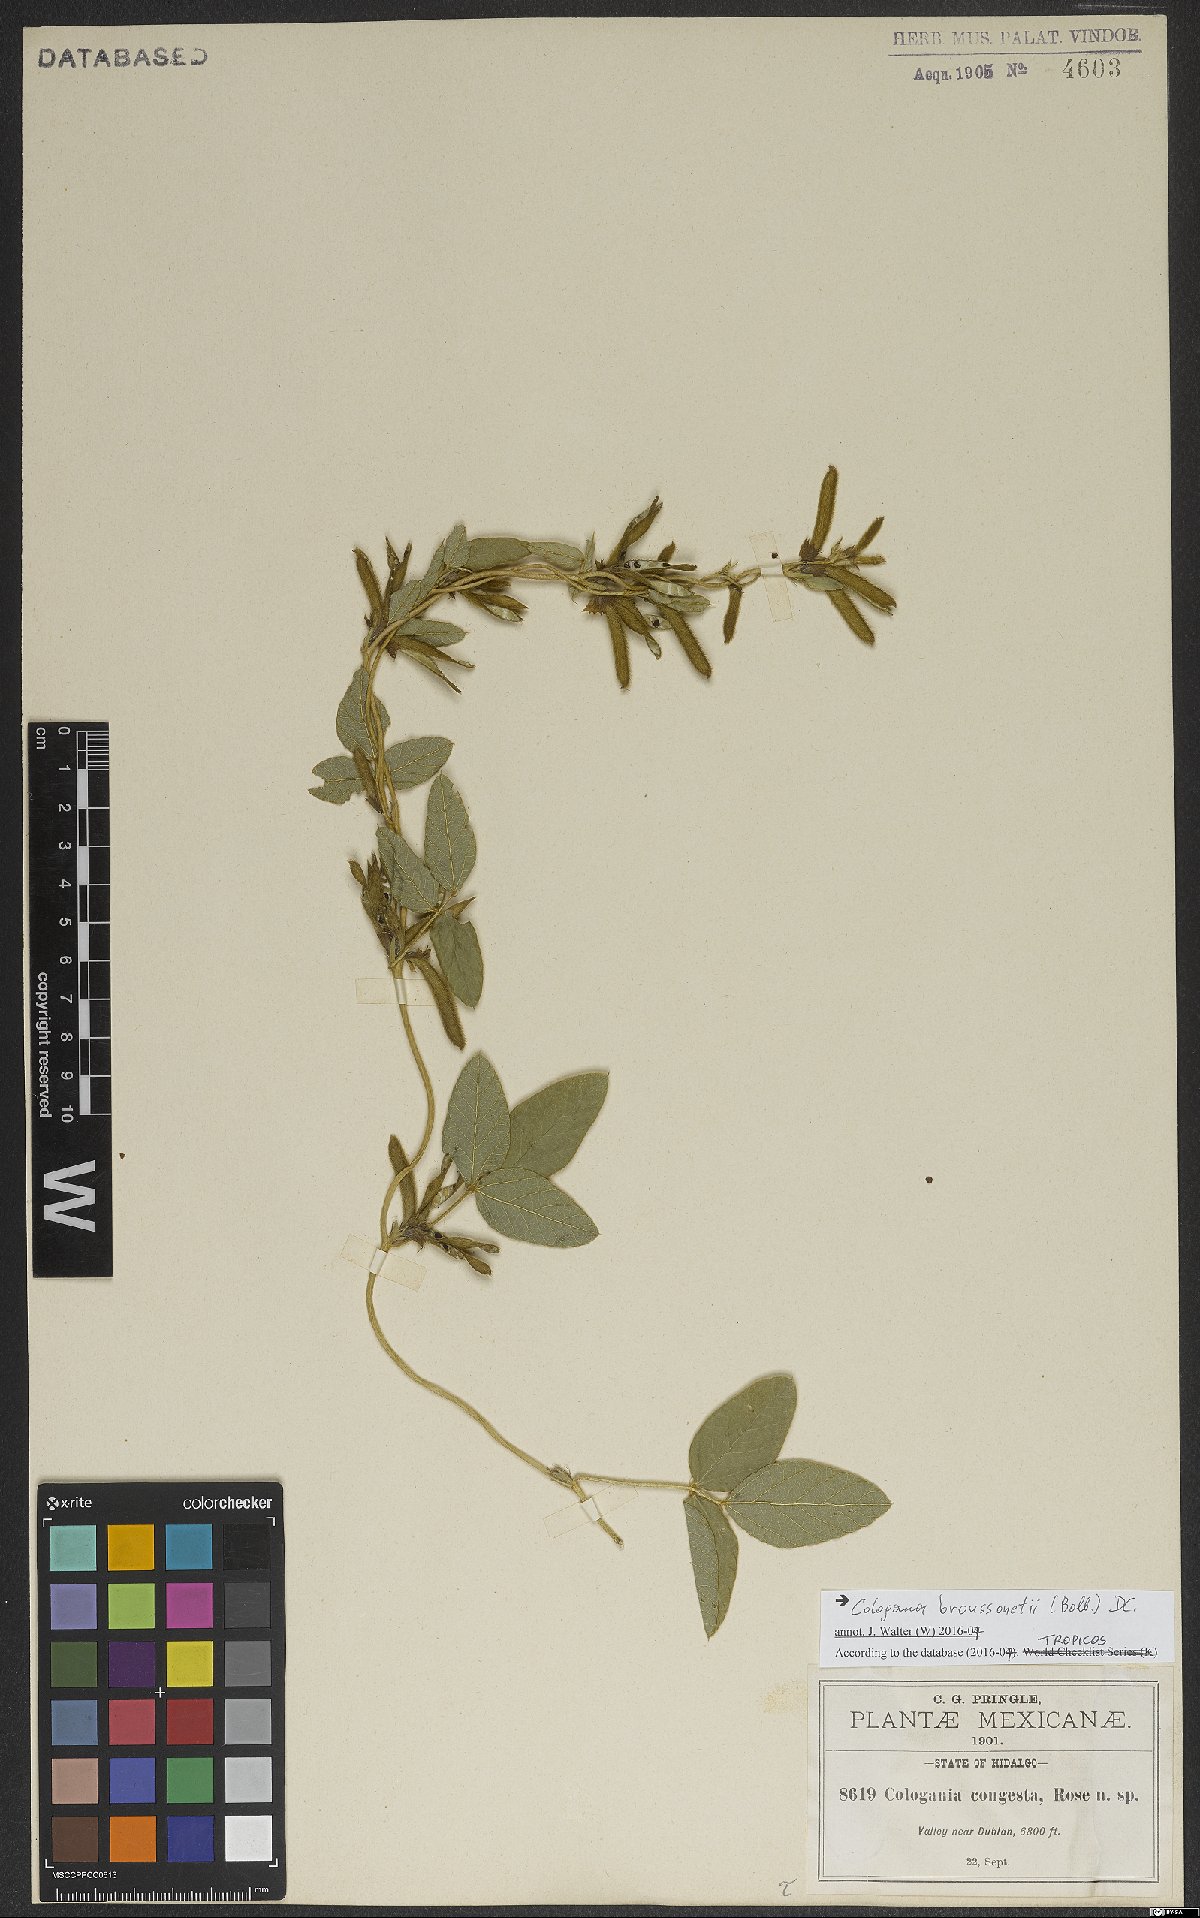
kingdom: Plantae
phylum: Tracheophyta
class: Magnoliopsida
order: Fabales
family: Fabaceae
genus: Cologania
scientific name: Cologania broussonetii
